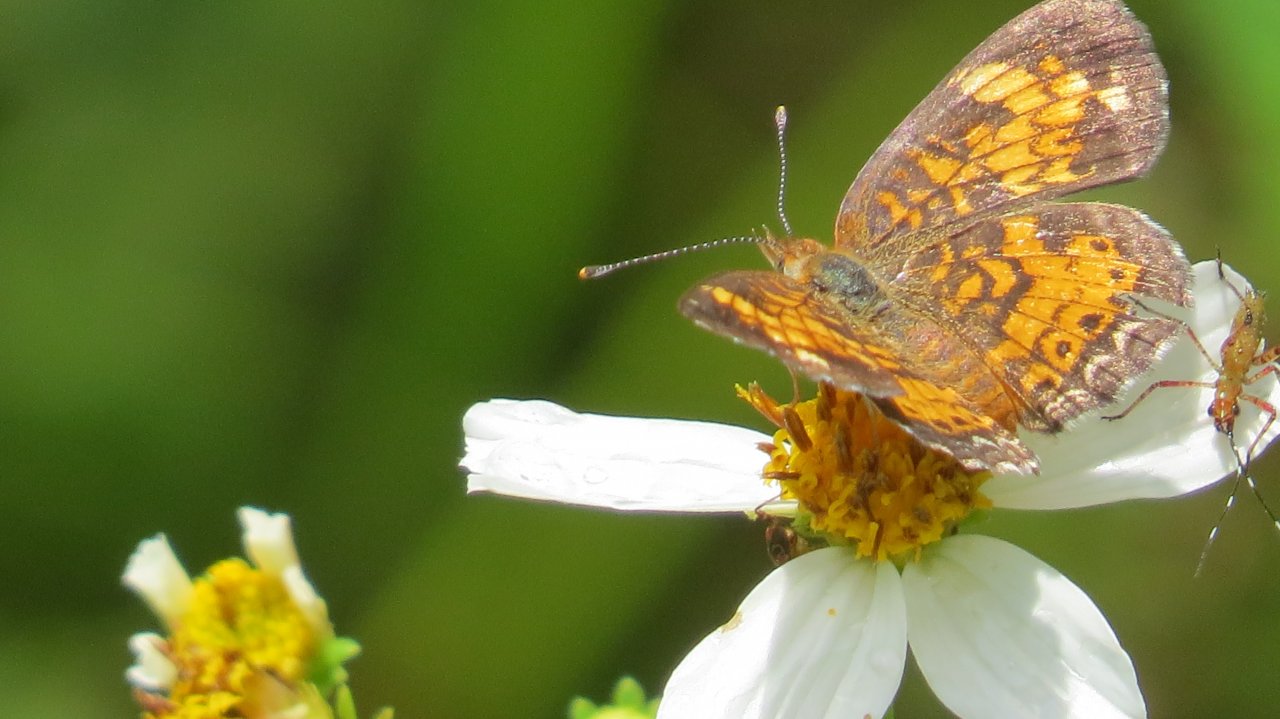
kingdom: Animalia
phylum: Arthropoda
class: Insecta
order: Lepidoptera
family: Nymphalidae
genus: Phyciodes
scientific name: Phyciodes tharos
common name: Pearl Crescent
